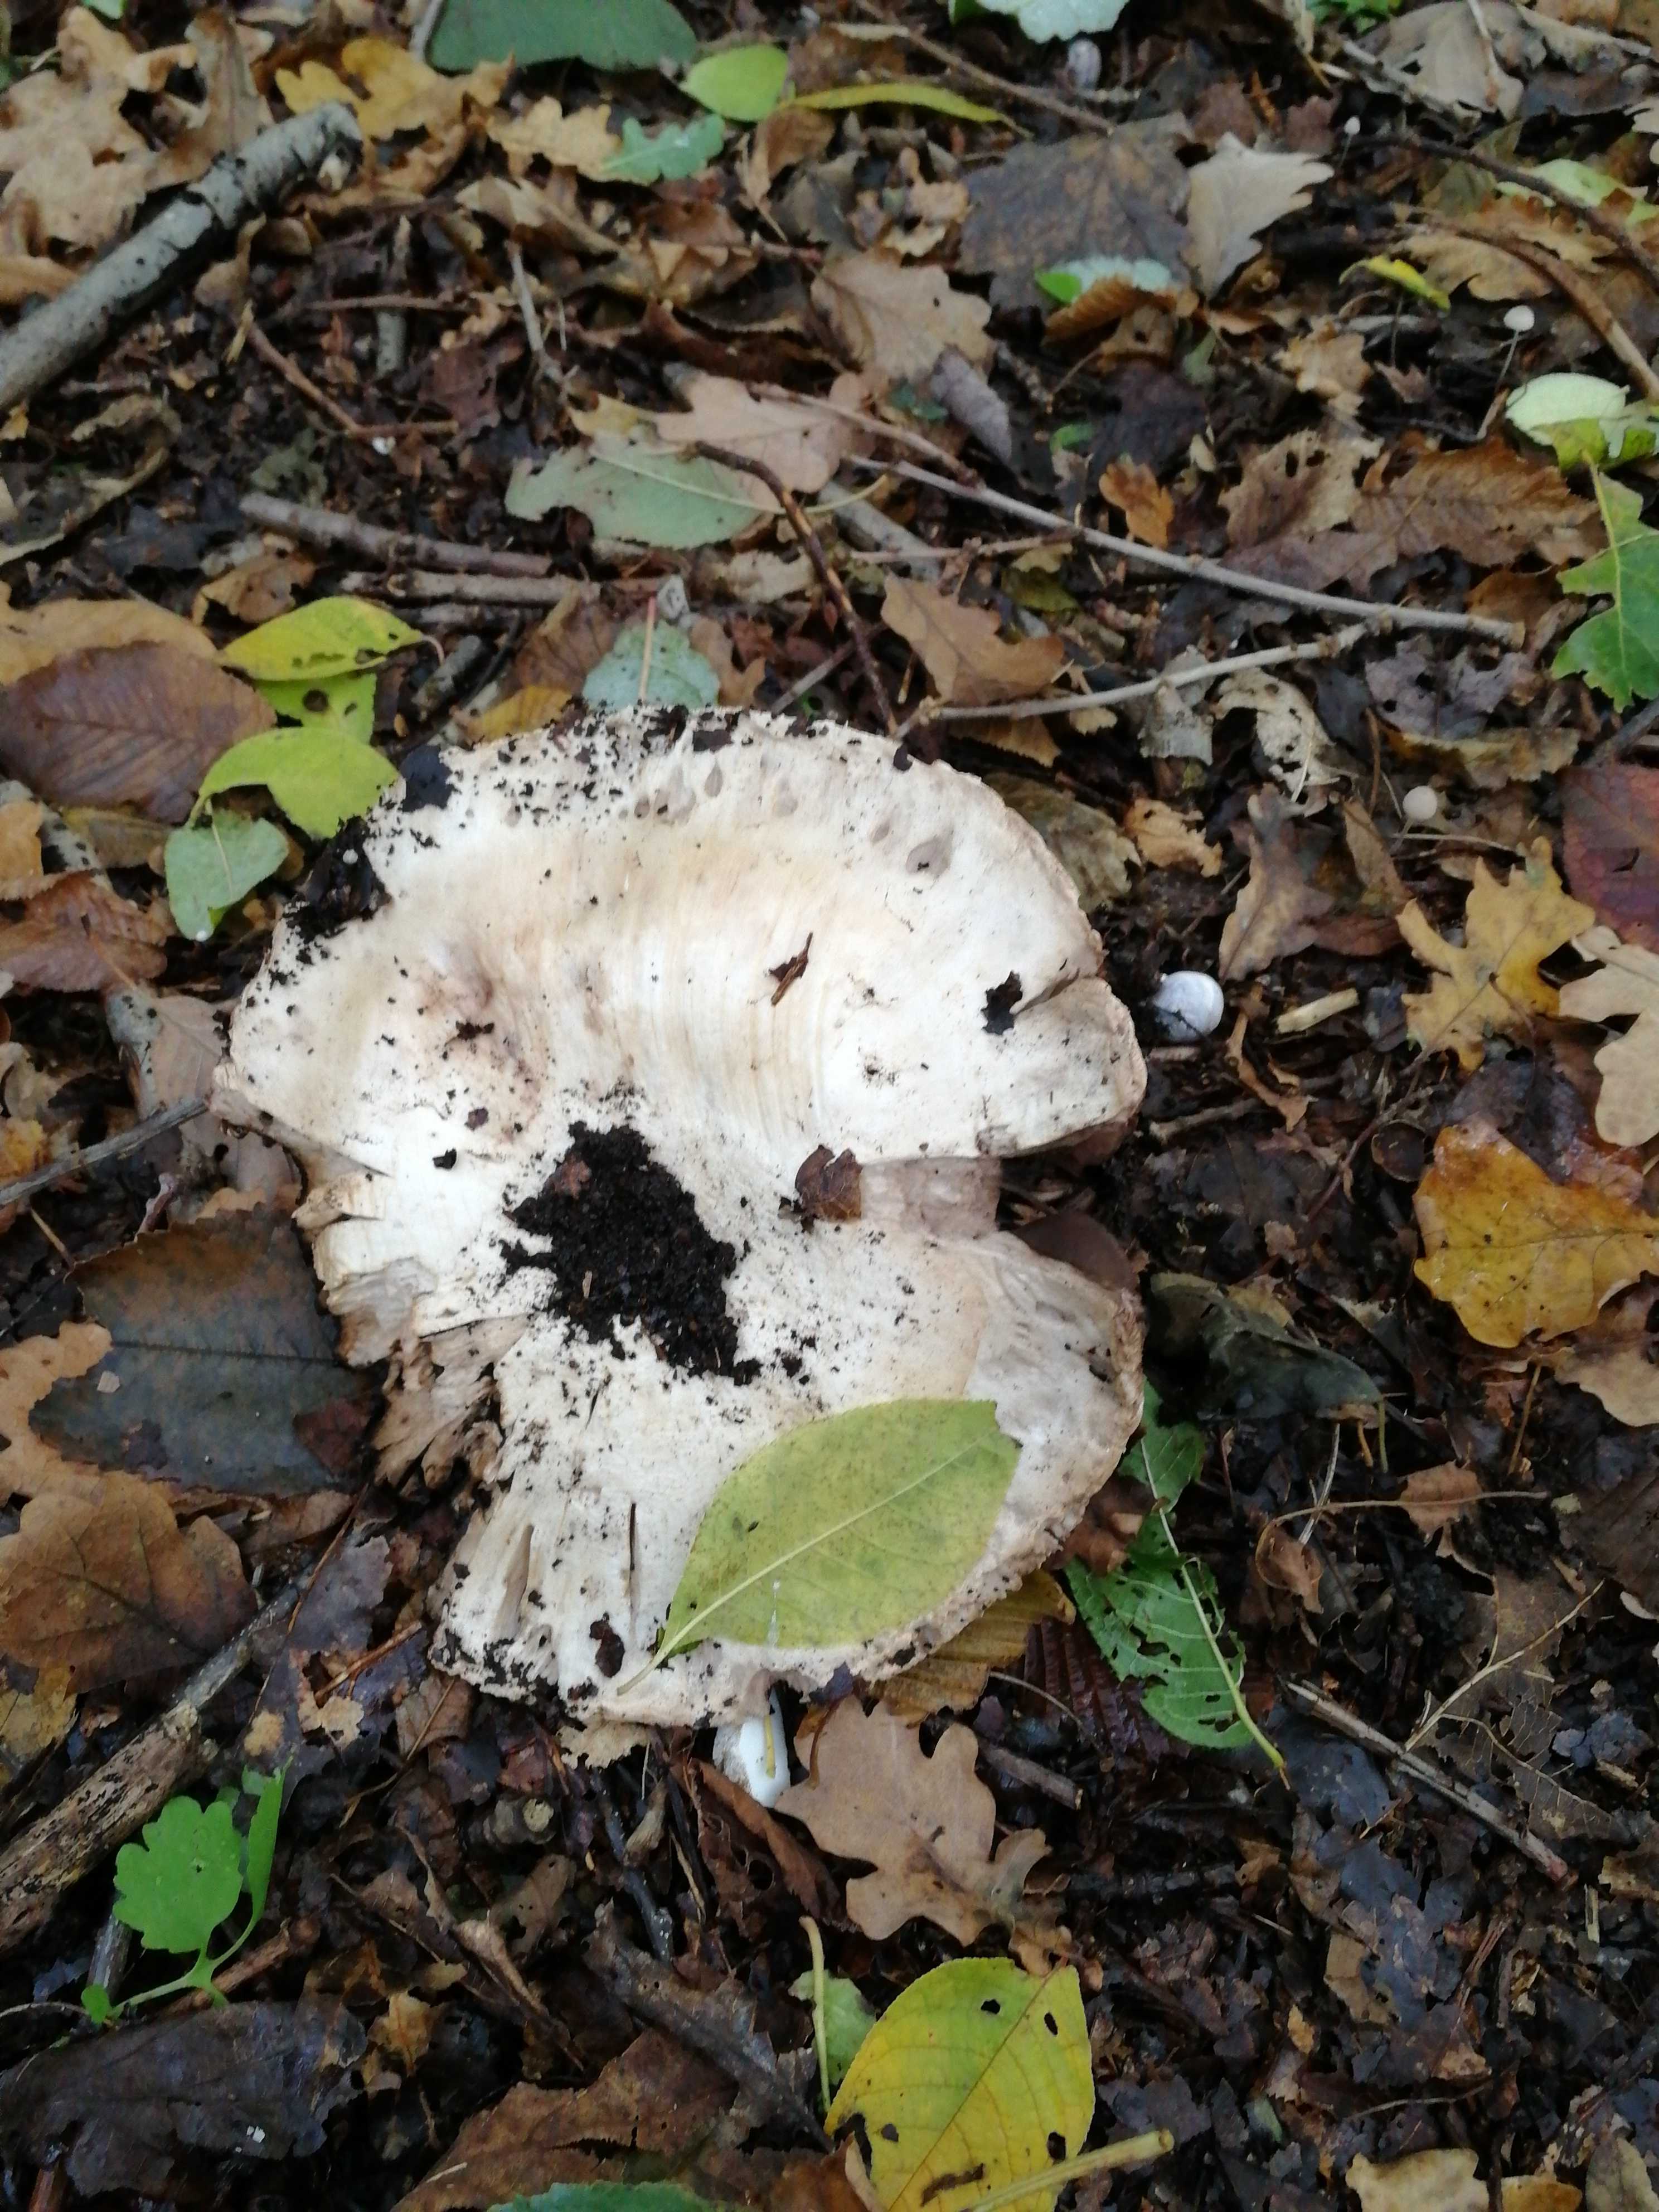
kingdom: Fungi
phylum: Basidiomycota
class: Agaricomycetes
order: Agaricales
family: Agaricaceae
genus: Agaricus
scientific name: Agaricus
